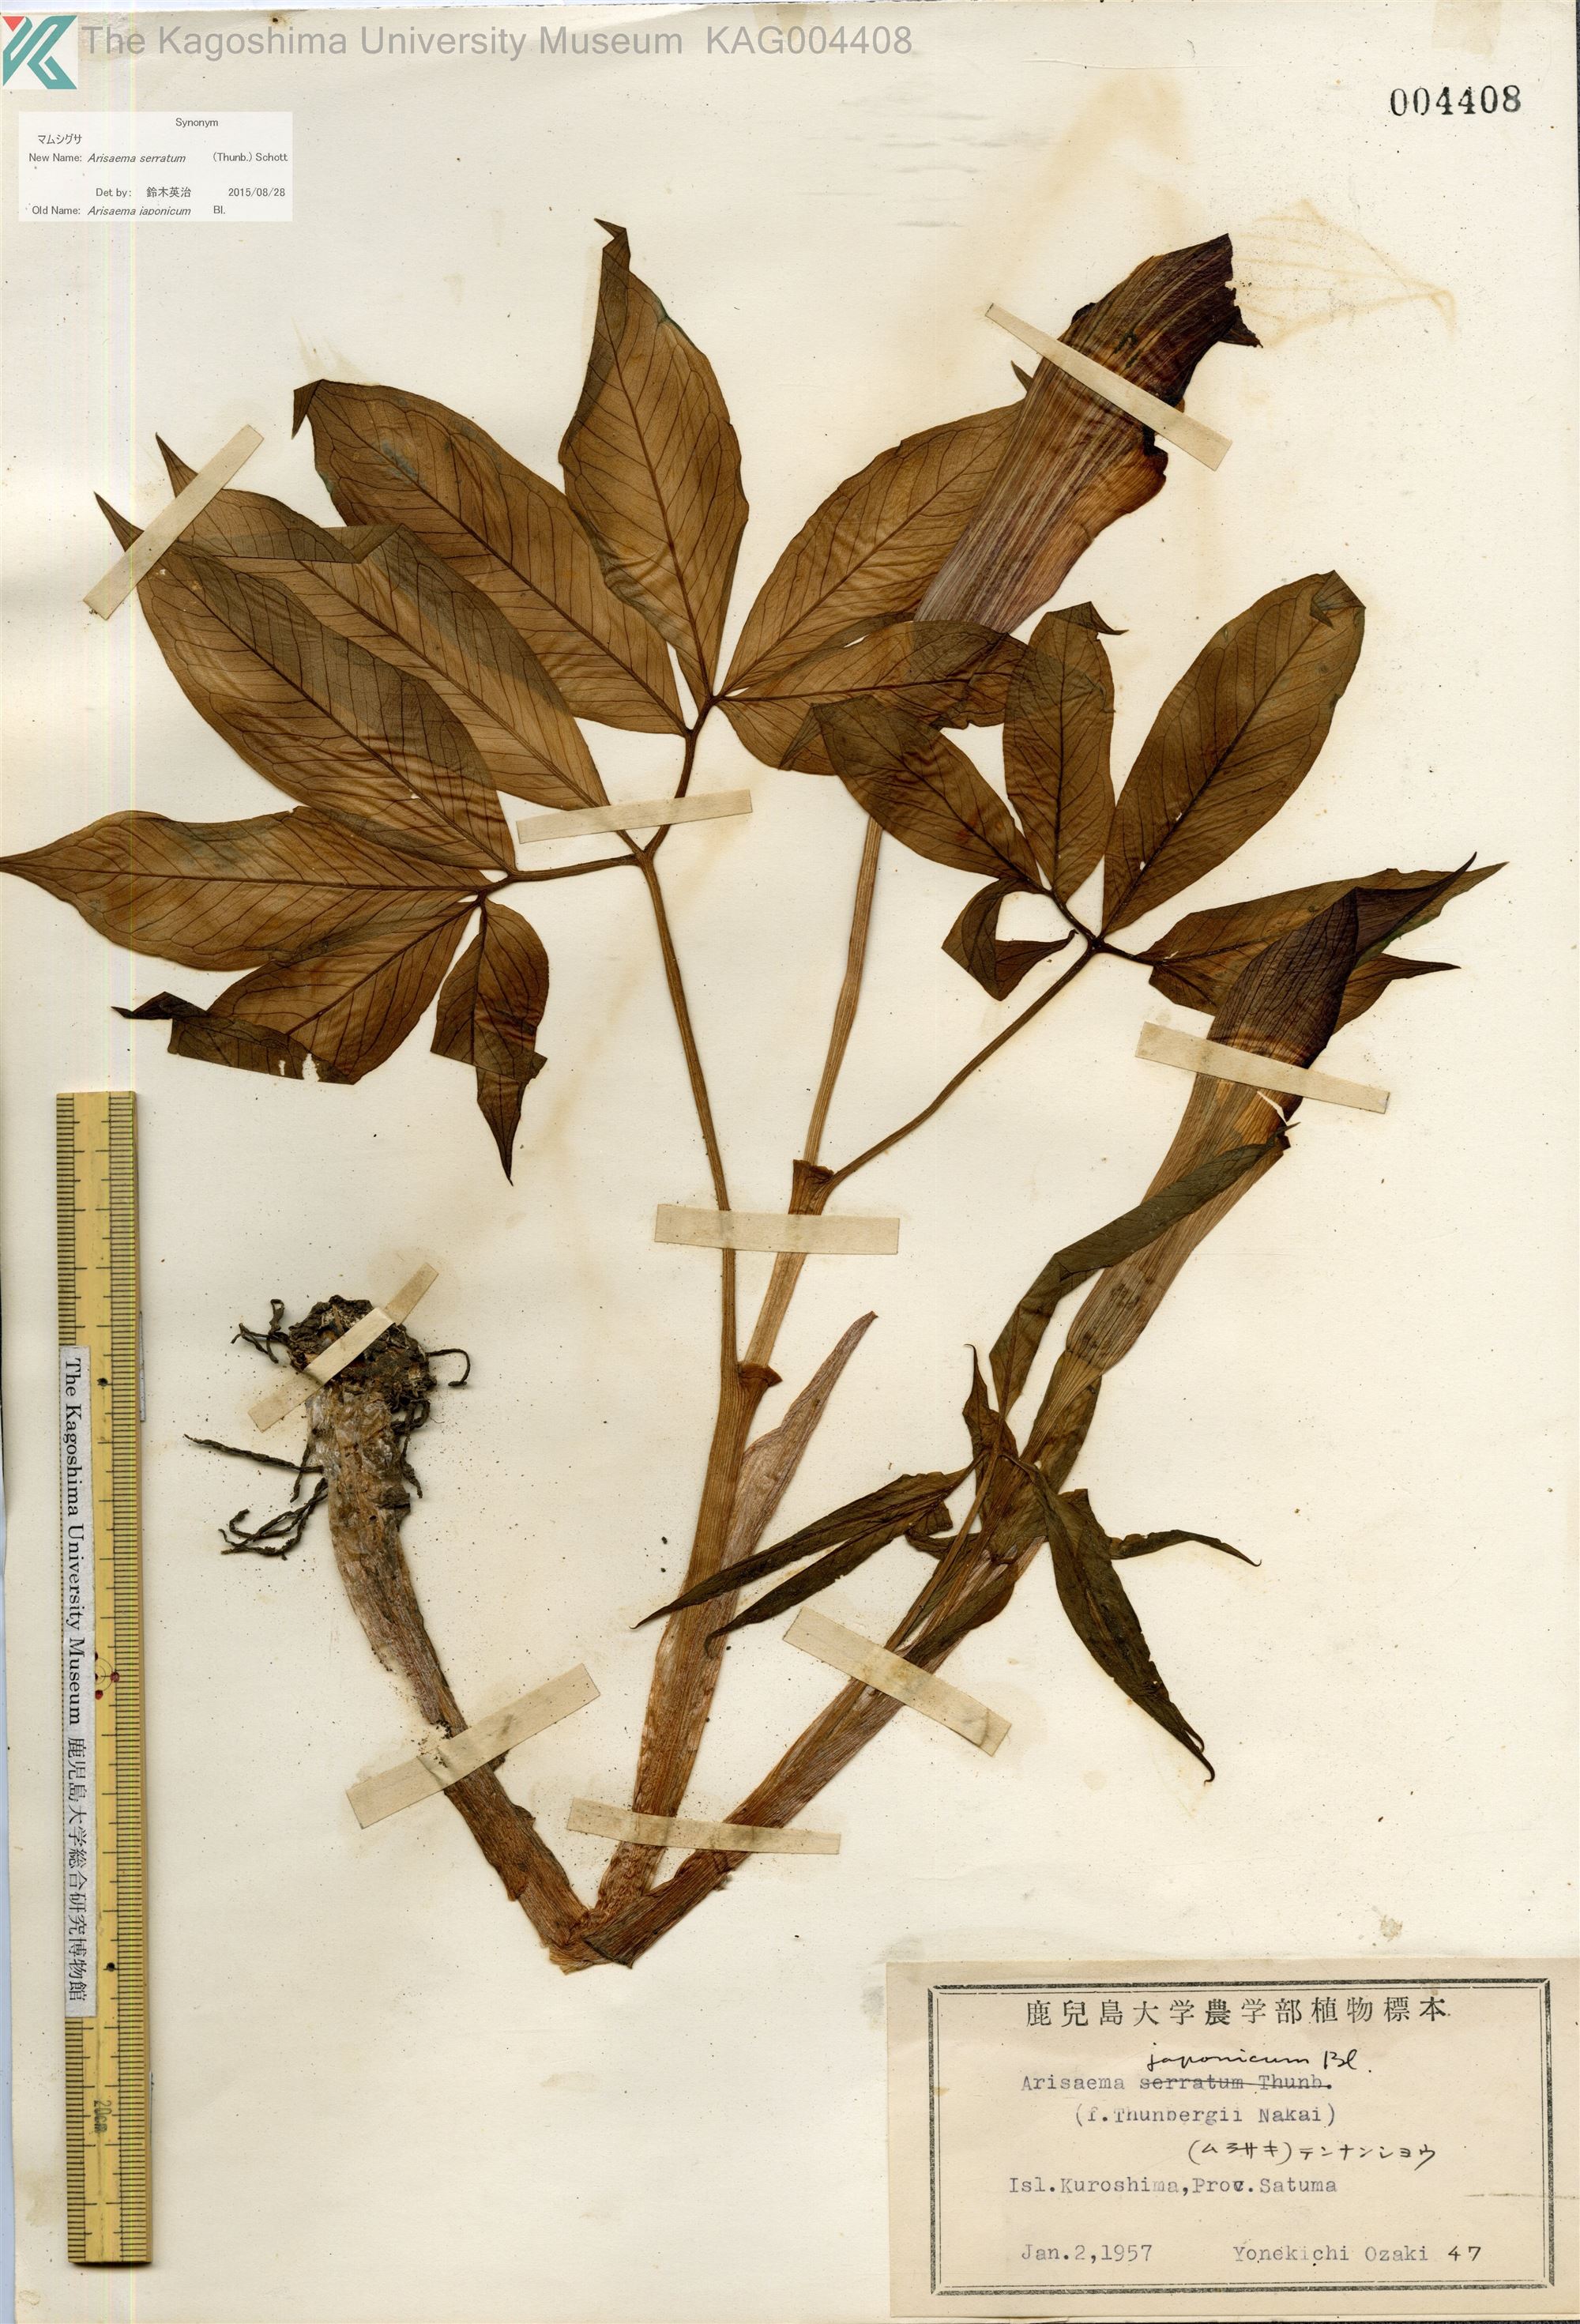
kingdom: Plantae
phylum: Tracheophyta
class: Liliopsida
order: Alismatales
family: Araceae
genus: Arisaema
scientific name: Arisaema serratum
